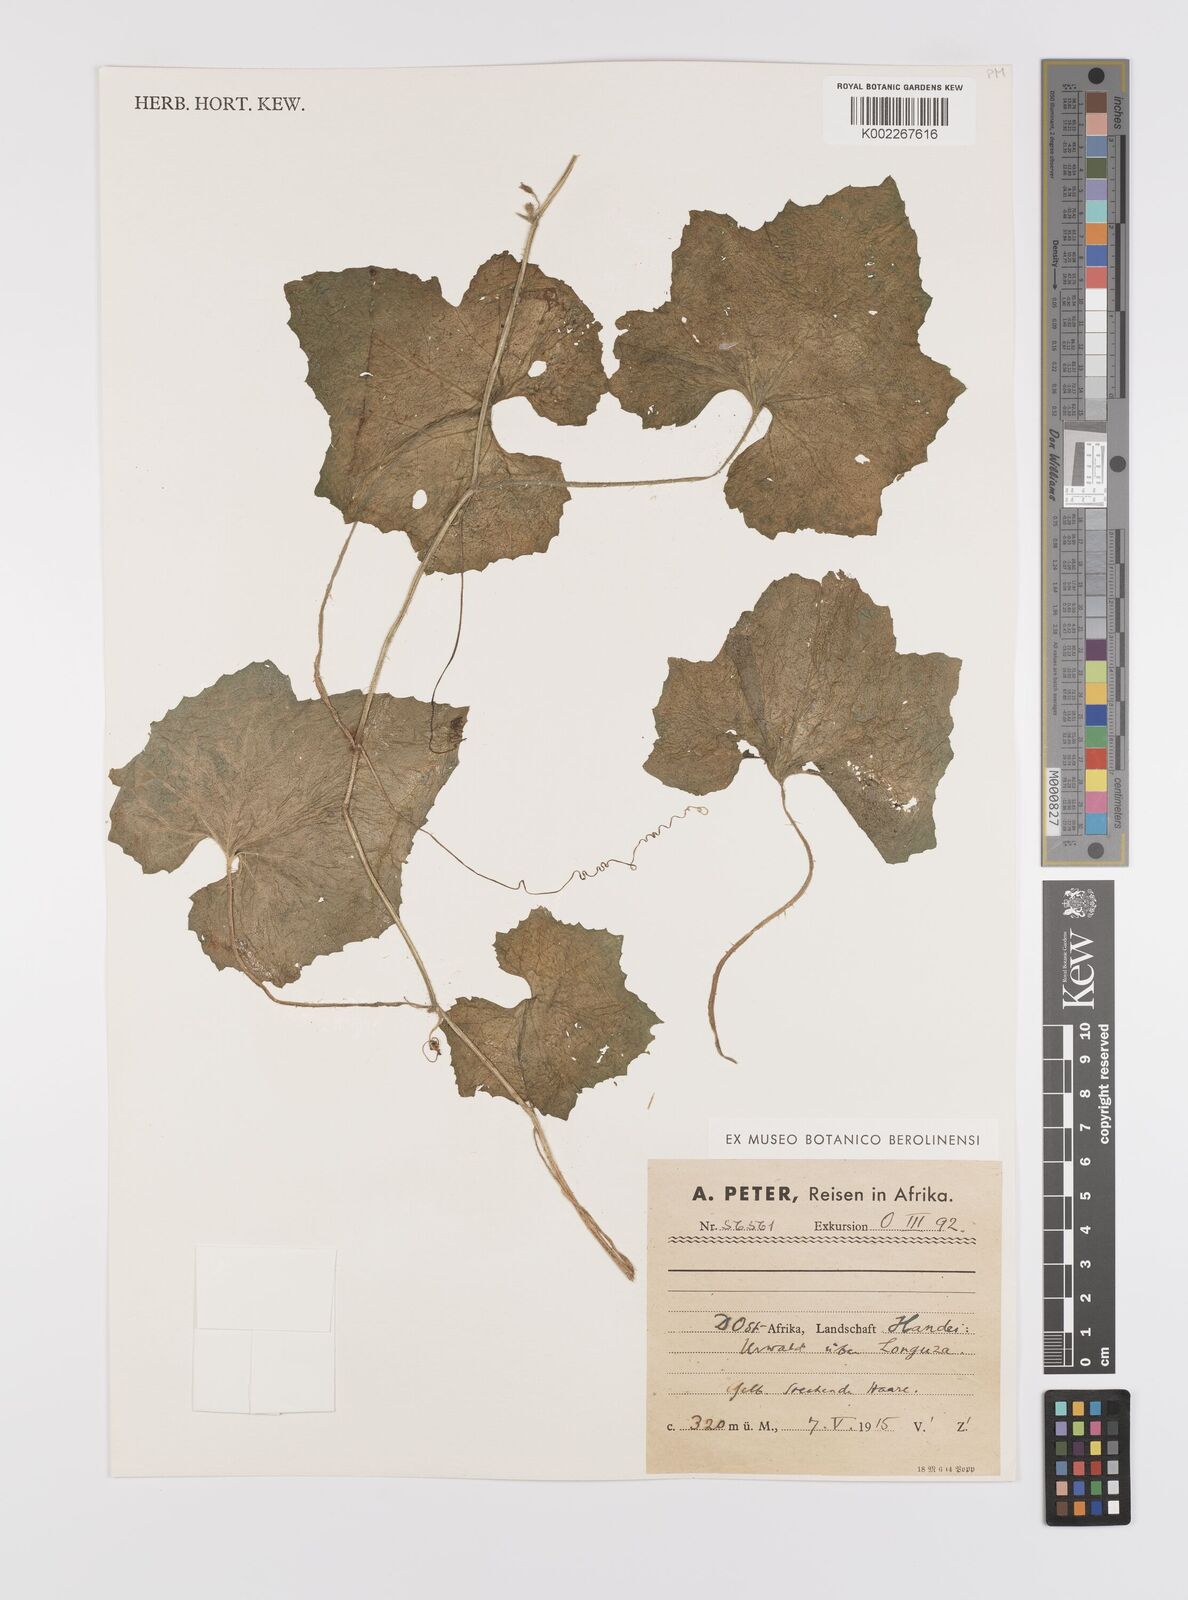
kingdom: Plantae
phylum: Tracheophyta
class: Magnoliopsida
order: Cucurbitales
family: Cucurbitaceae
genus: Cucumis
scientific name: Cucumis sacleuxii
